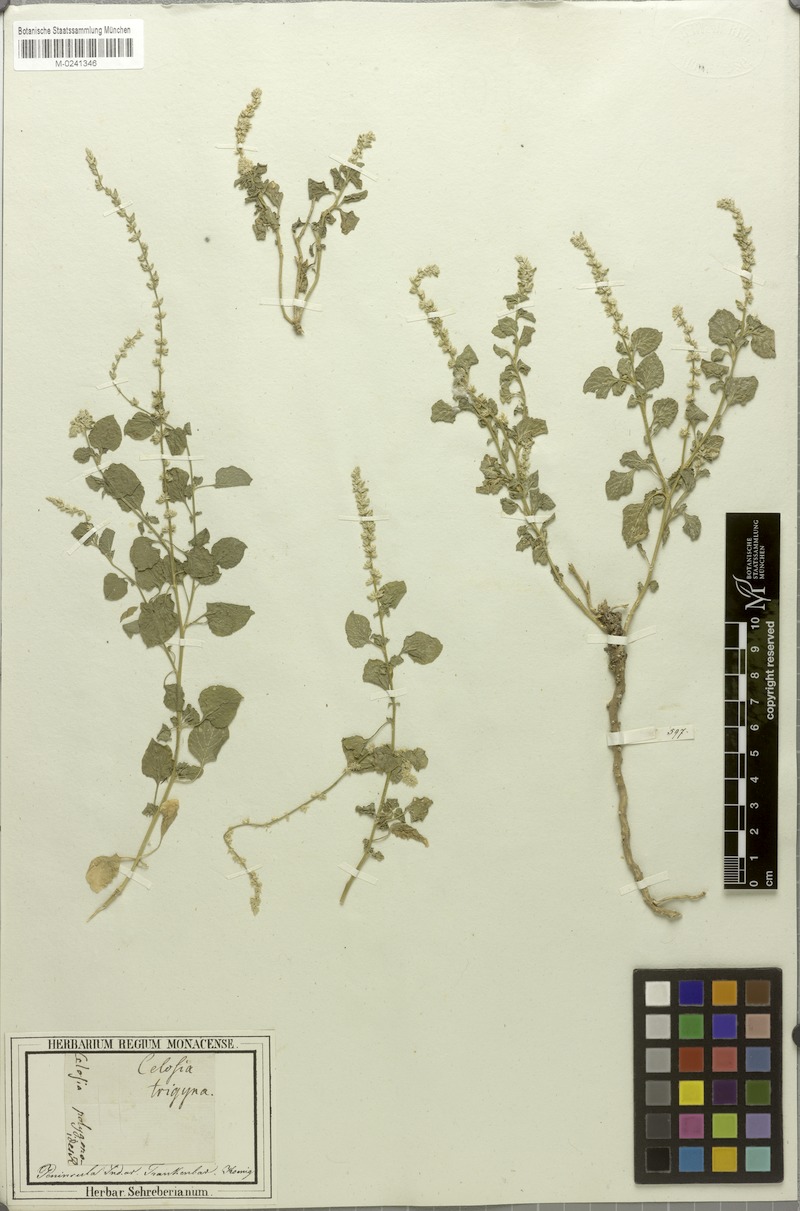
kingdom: Plantae
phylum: Tracheophyta
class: Magnoliopsida
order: Caryophyllales
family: Amaranthaceae
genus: Celosia
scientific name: Celosia polygonoides
